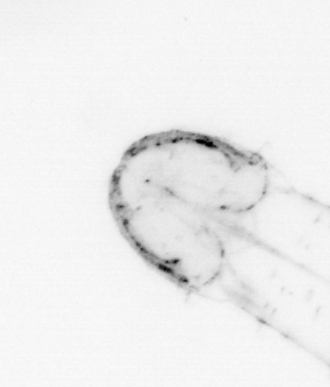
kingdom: Animalia
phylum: Chaetognatha
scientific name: Chaetognatha
